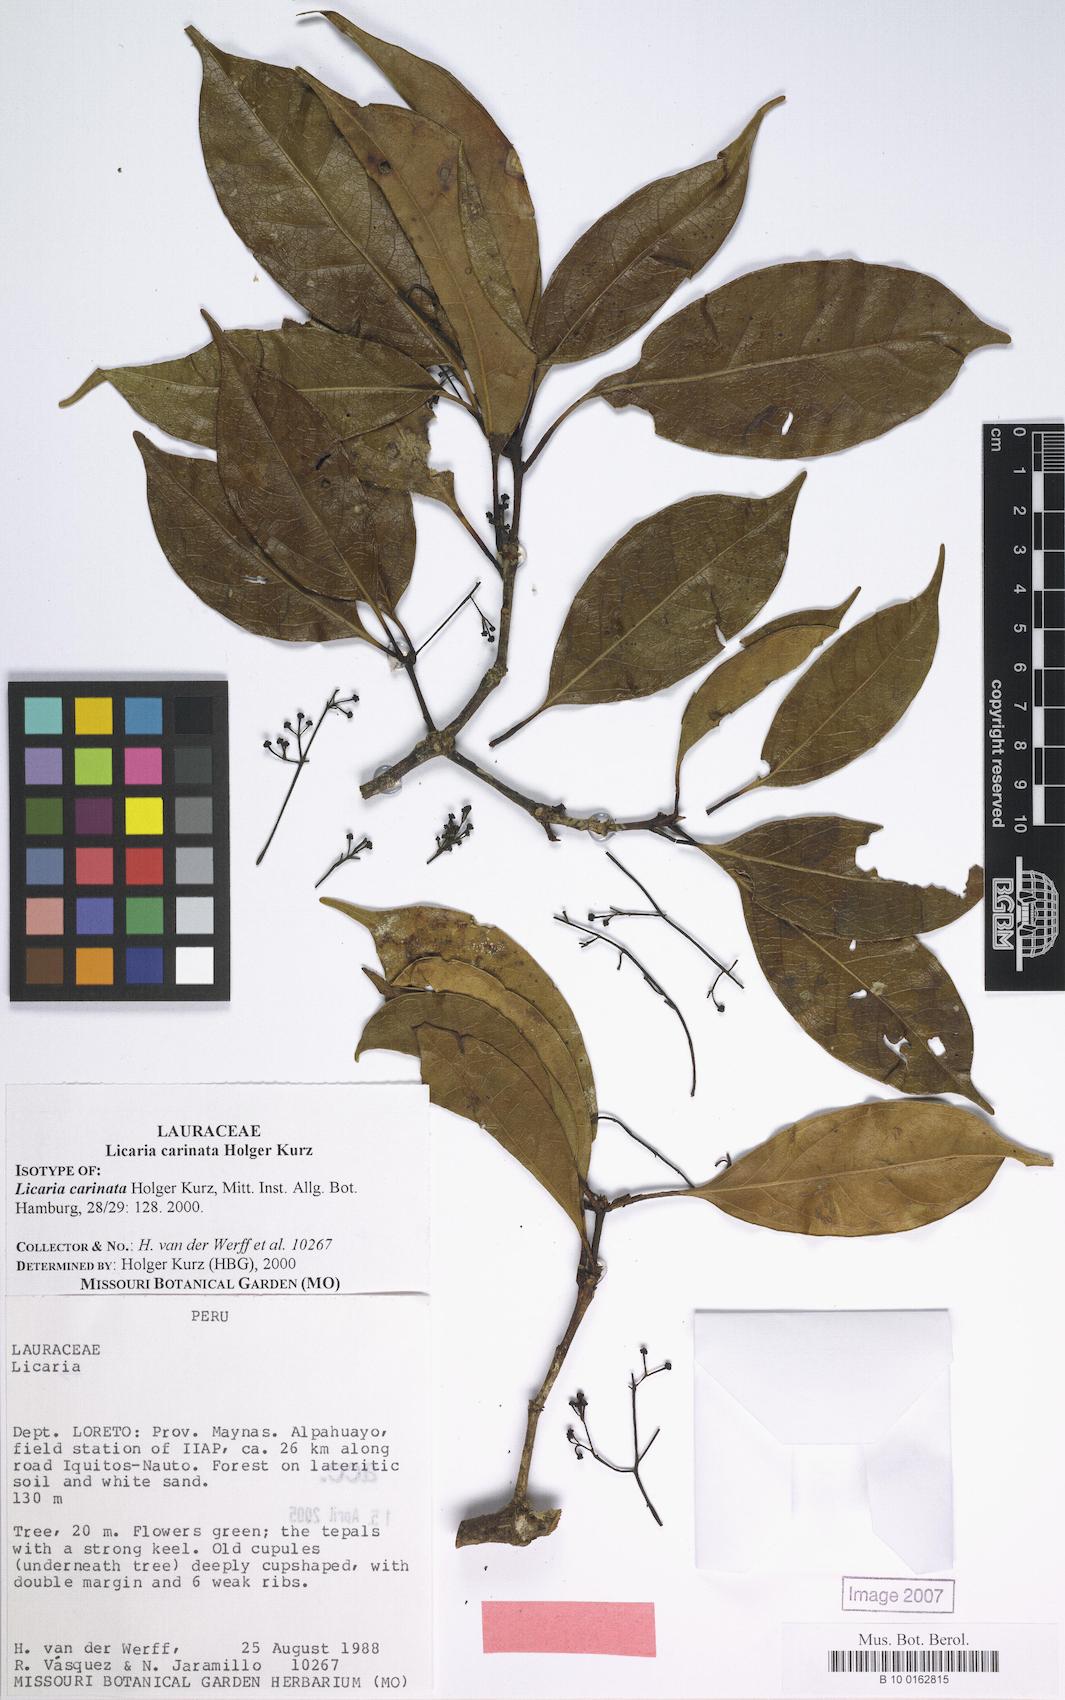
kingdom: Plantae
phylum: Tracheophyta
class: Magnoliopsida
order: Laurales
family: Lauraceae
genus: Licaria
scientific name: Licaria carinata
